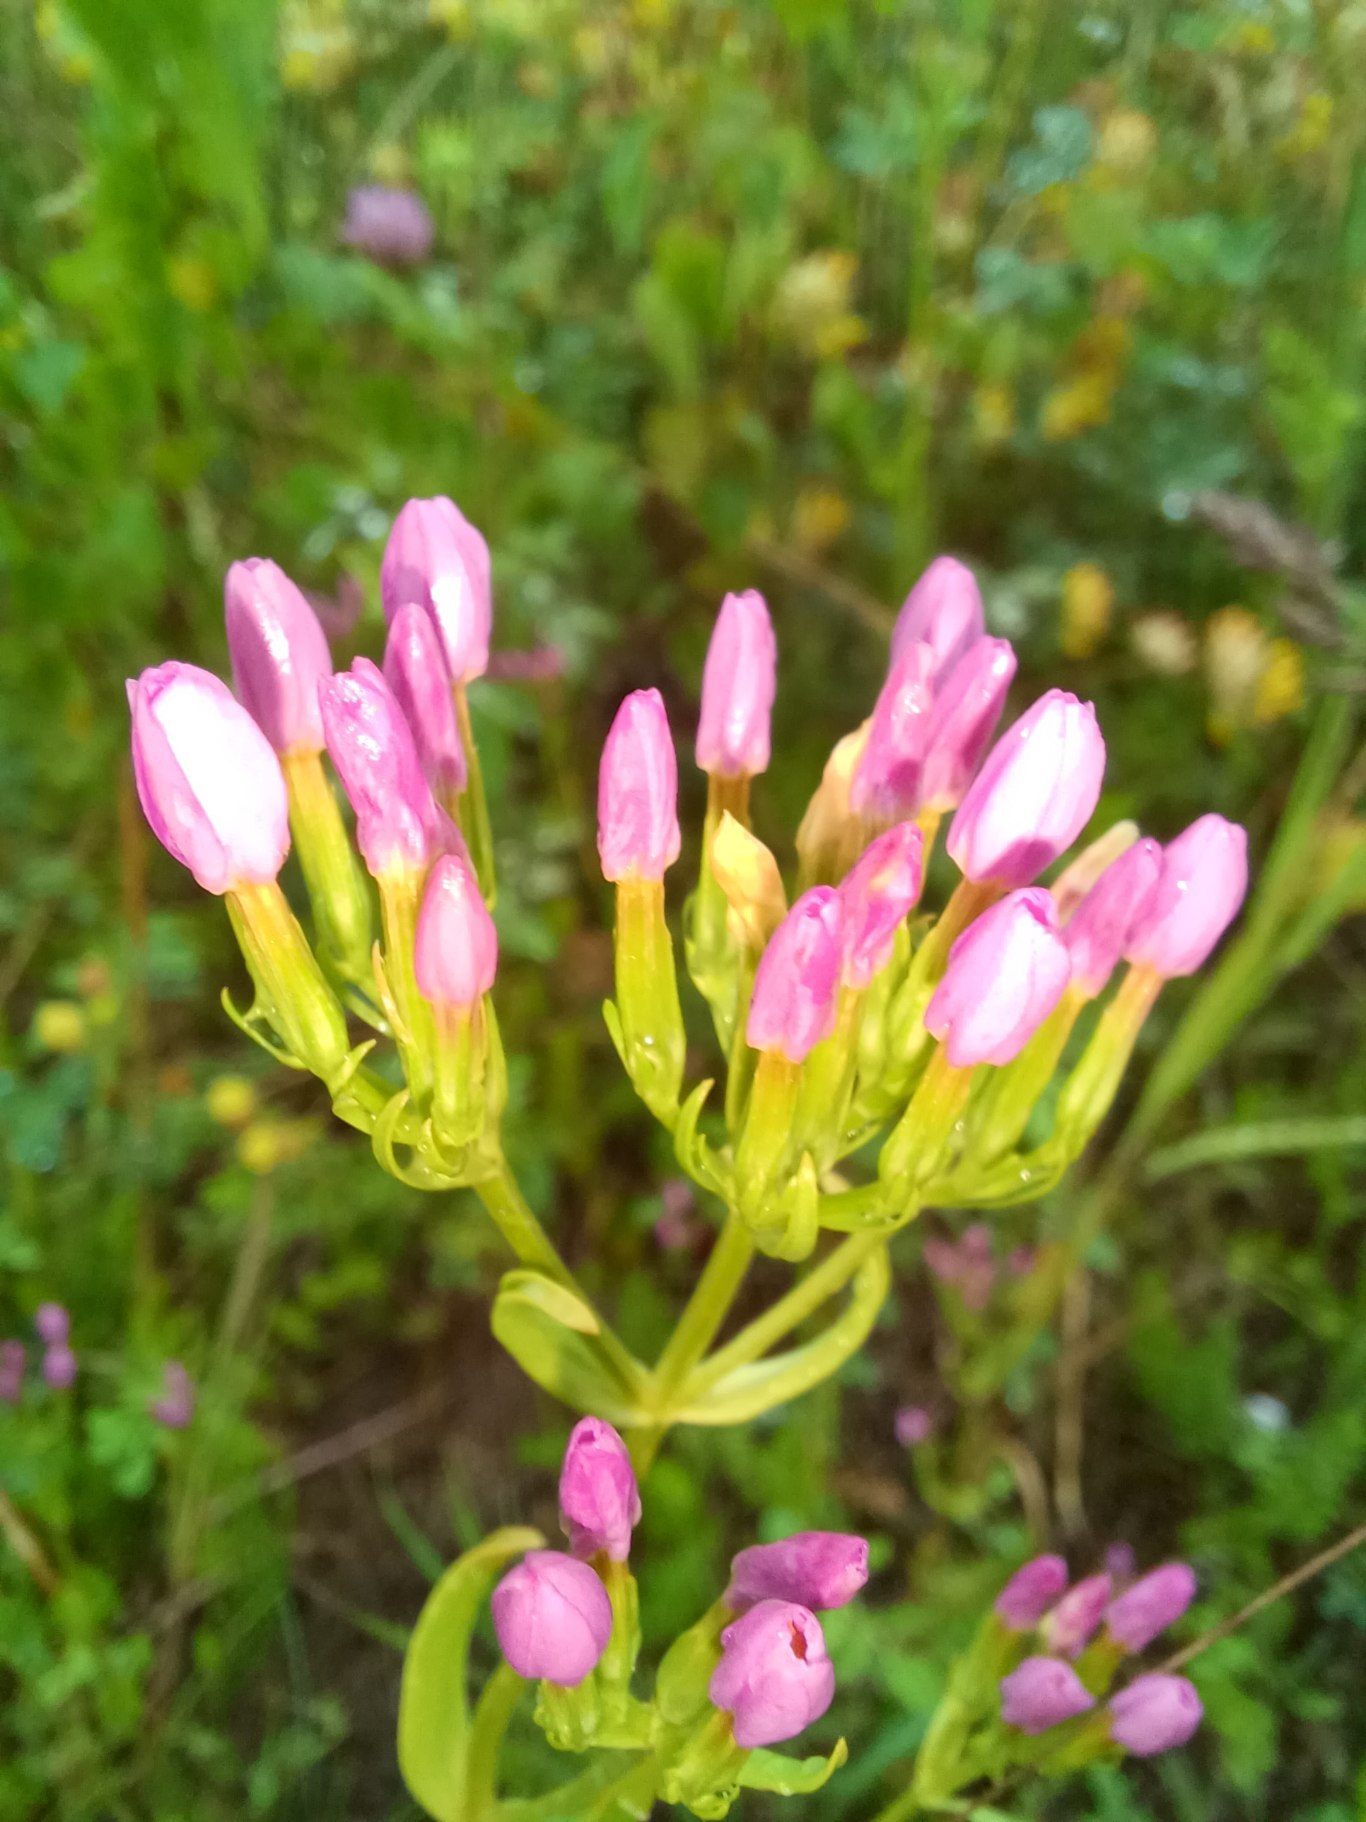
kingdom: Plantae
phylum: Tracheophyta
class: Magnoliopsida
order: Gentianales
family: Gentianaceae
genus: Centaurium
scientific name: Centaurium erythraea
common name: Mark-tusindgylden
